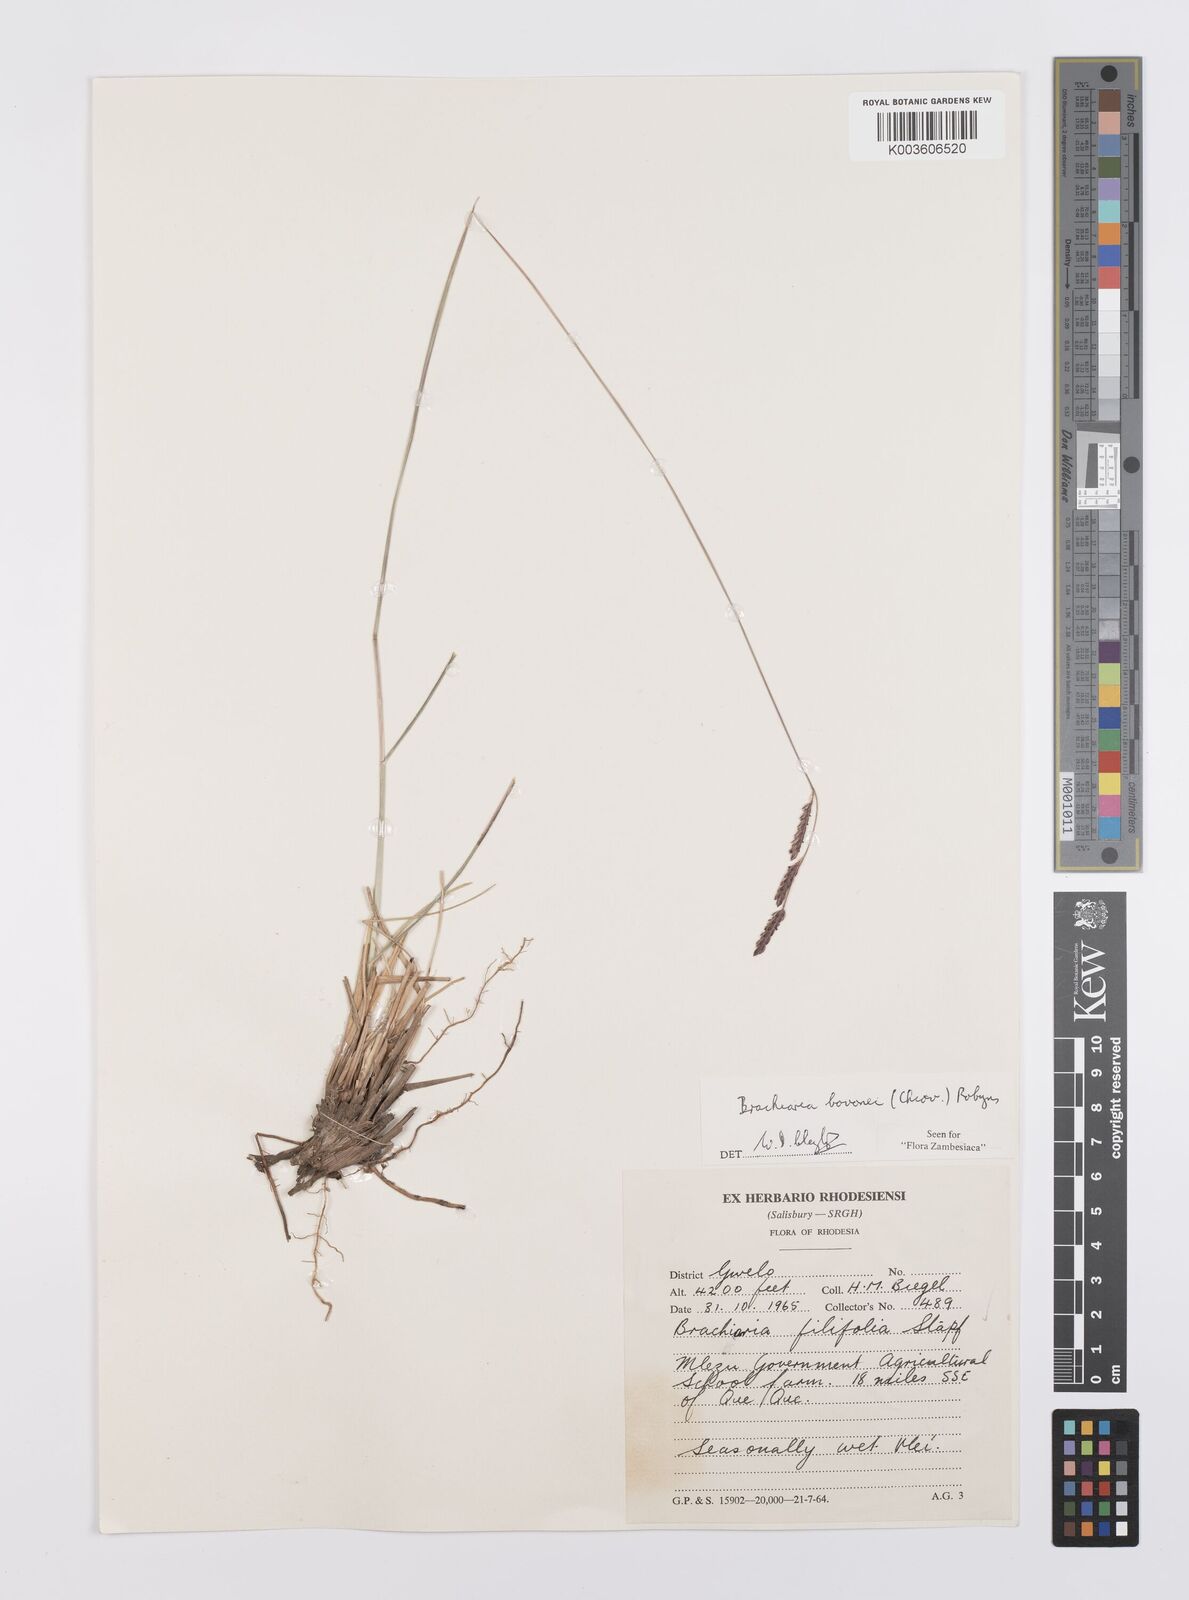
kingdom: Plantae
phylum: Tracheophyta
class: Liliopsida
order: Poales
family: Poaceae
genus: Urochloa
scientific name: Urochloa bovonei
